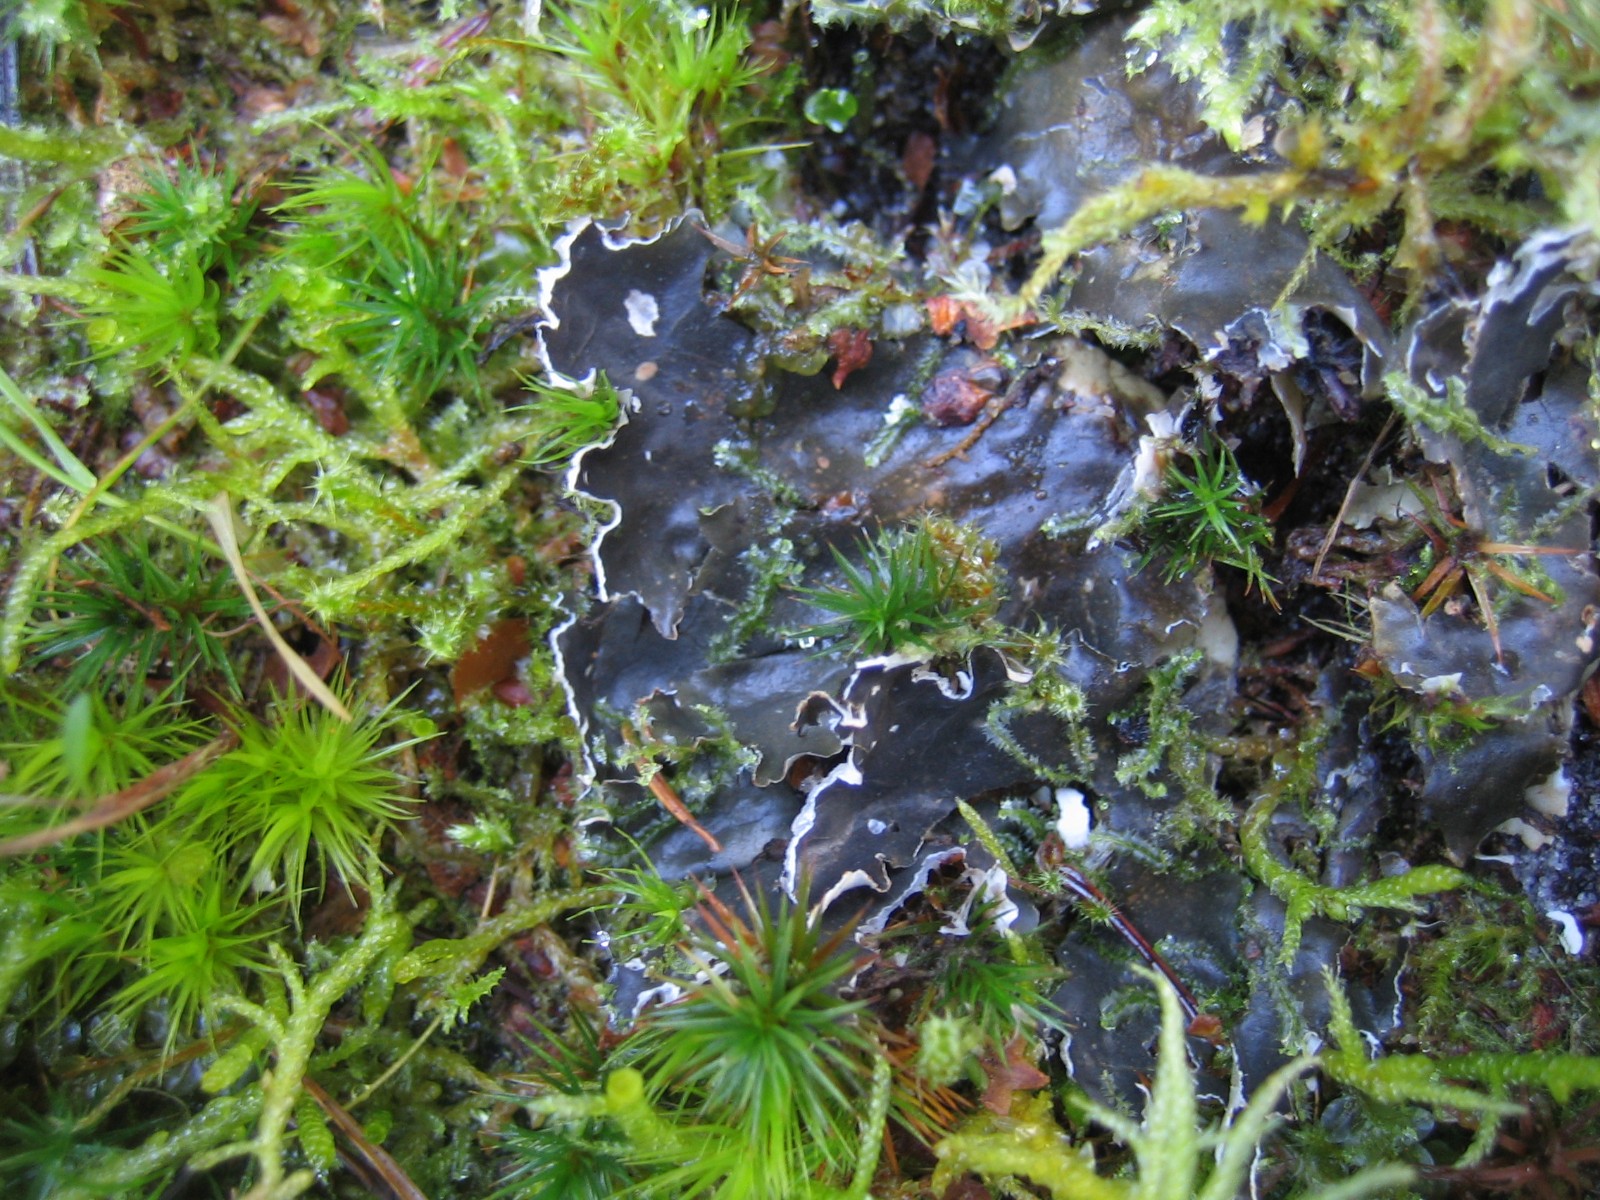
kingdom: Fungi
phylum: Ascomycota
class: Lecanoromycetes
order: Peltigerales
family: Peltigeraceae
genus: Peltigera
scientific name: Peltigera hymenina
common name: hinde-skjoldlav
